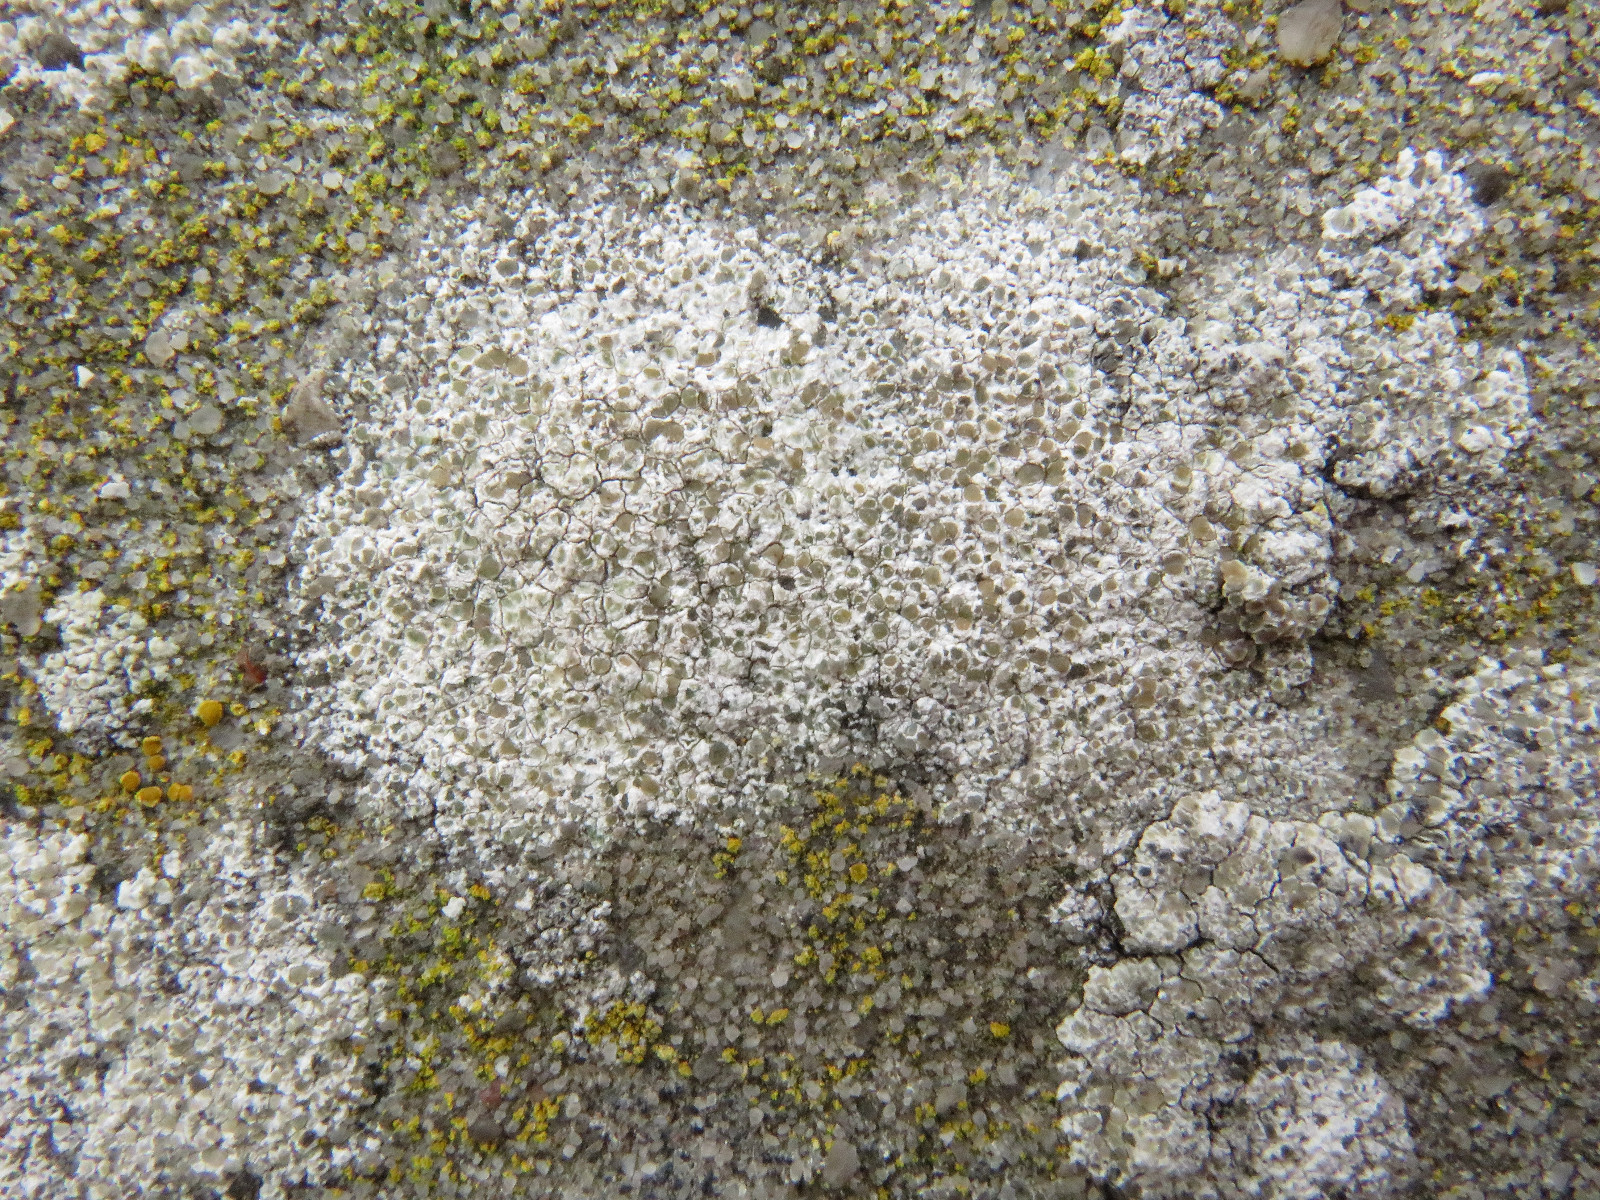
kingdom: Fungi
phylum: Ascomycota
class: Lecanoromycetes
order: Lecanorales
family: Lecanoraceae
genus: Polyozosia
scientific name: Polyozosia albescens
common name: cement-kantskivelav
